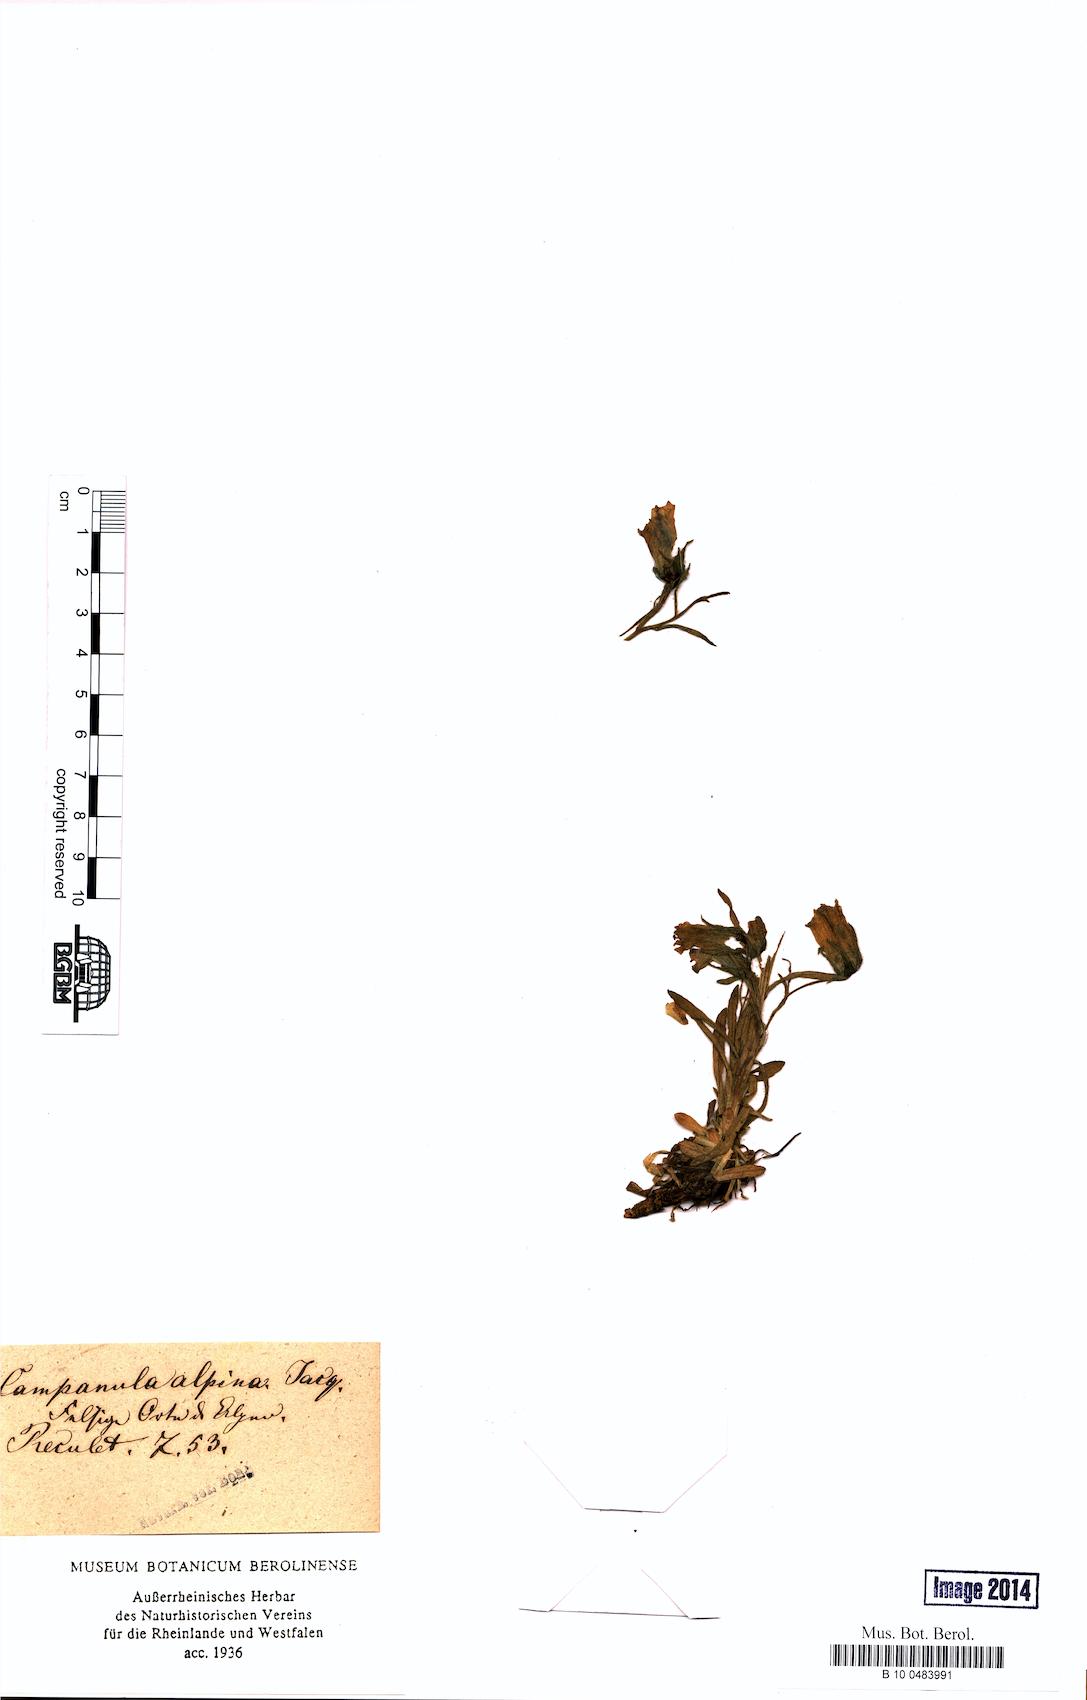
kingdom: Plantae
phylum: Tracheophyta
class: Magnoliopsida
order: Asterales
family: Campanulaceae
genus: Campanula
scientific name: Campanula alpina
